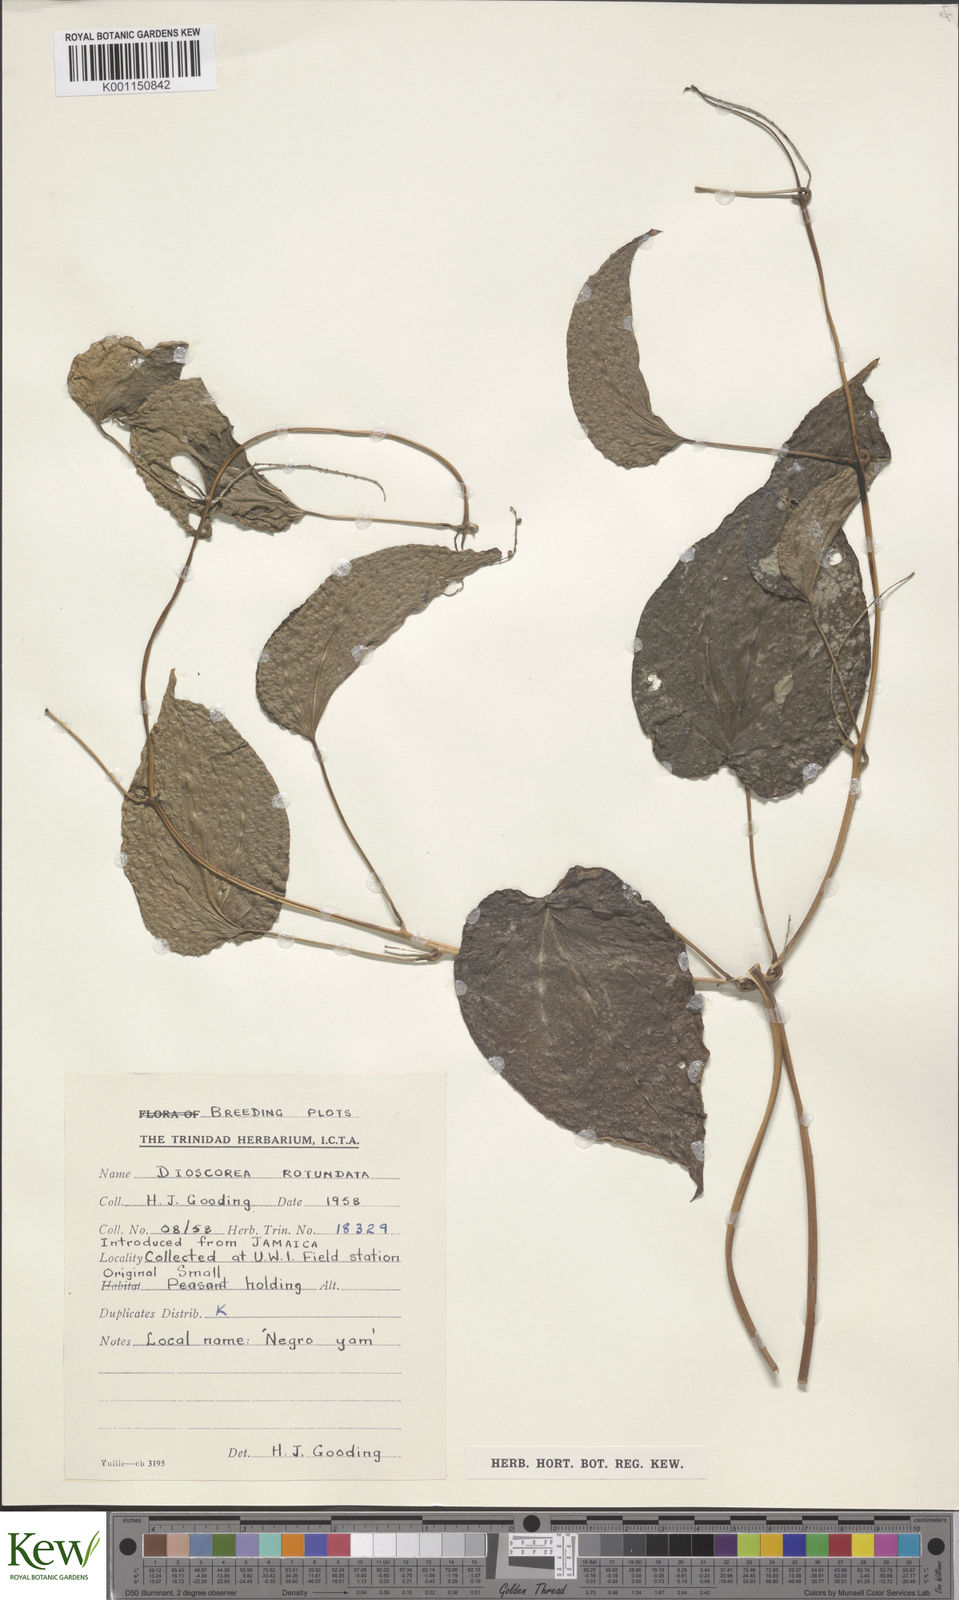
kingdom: Plantae
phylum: Tracheophyta
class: Liliopsida
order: Dioscoreales
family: Dioscoreaceae
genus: Dioscorea
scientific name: Dioscorea cayenensis
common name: Attoto yam
